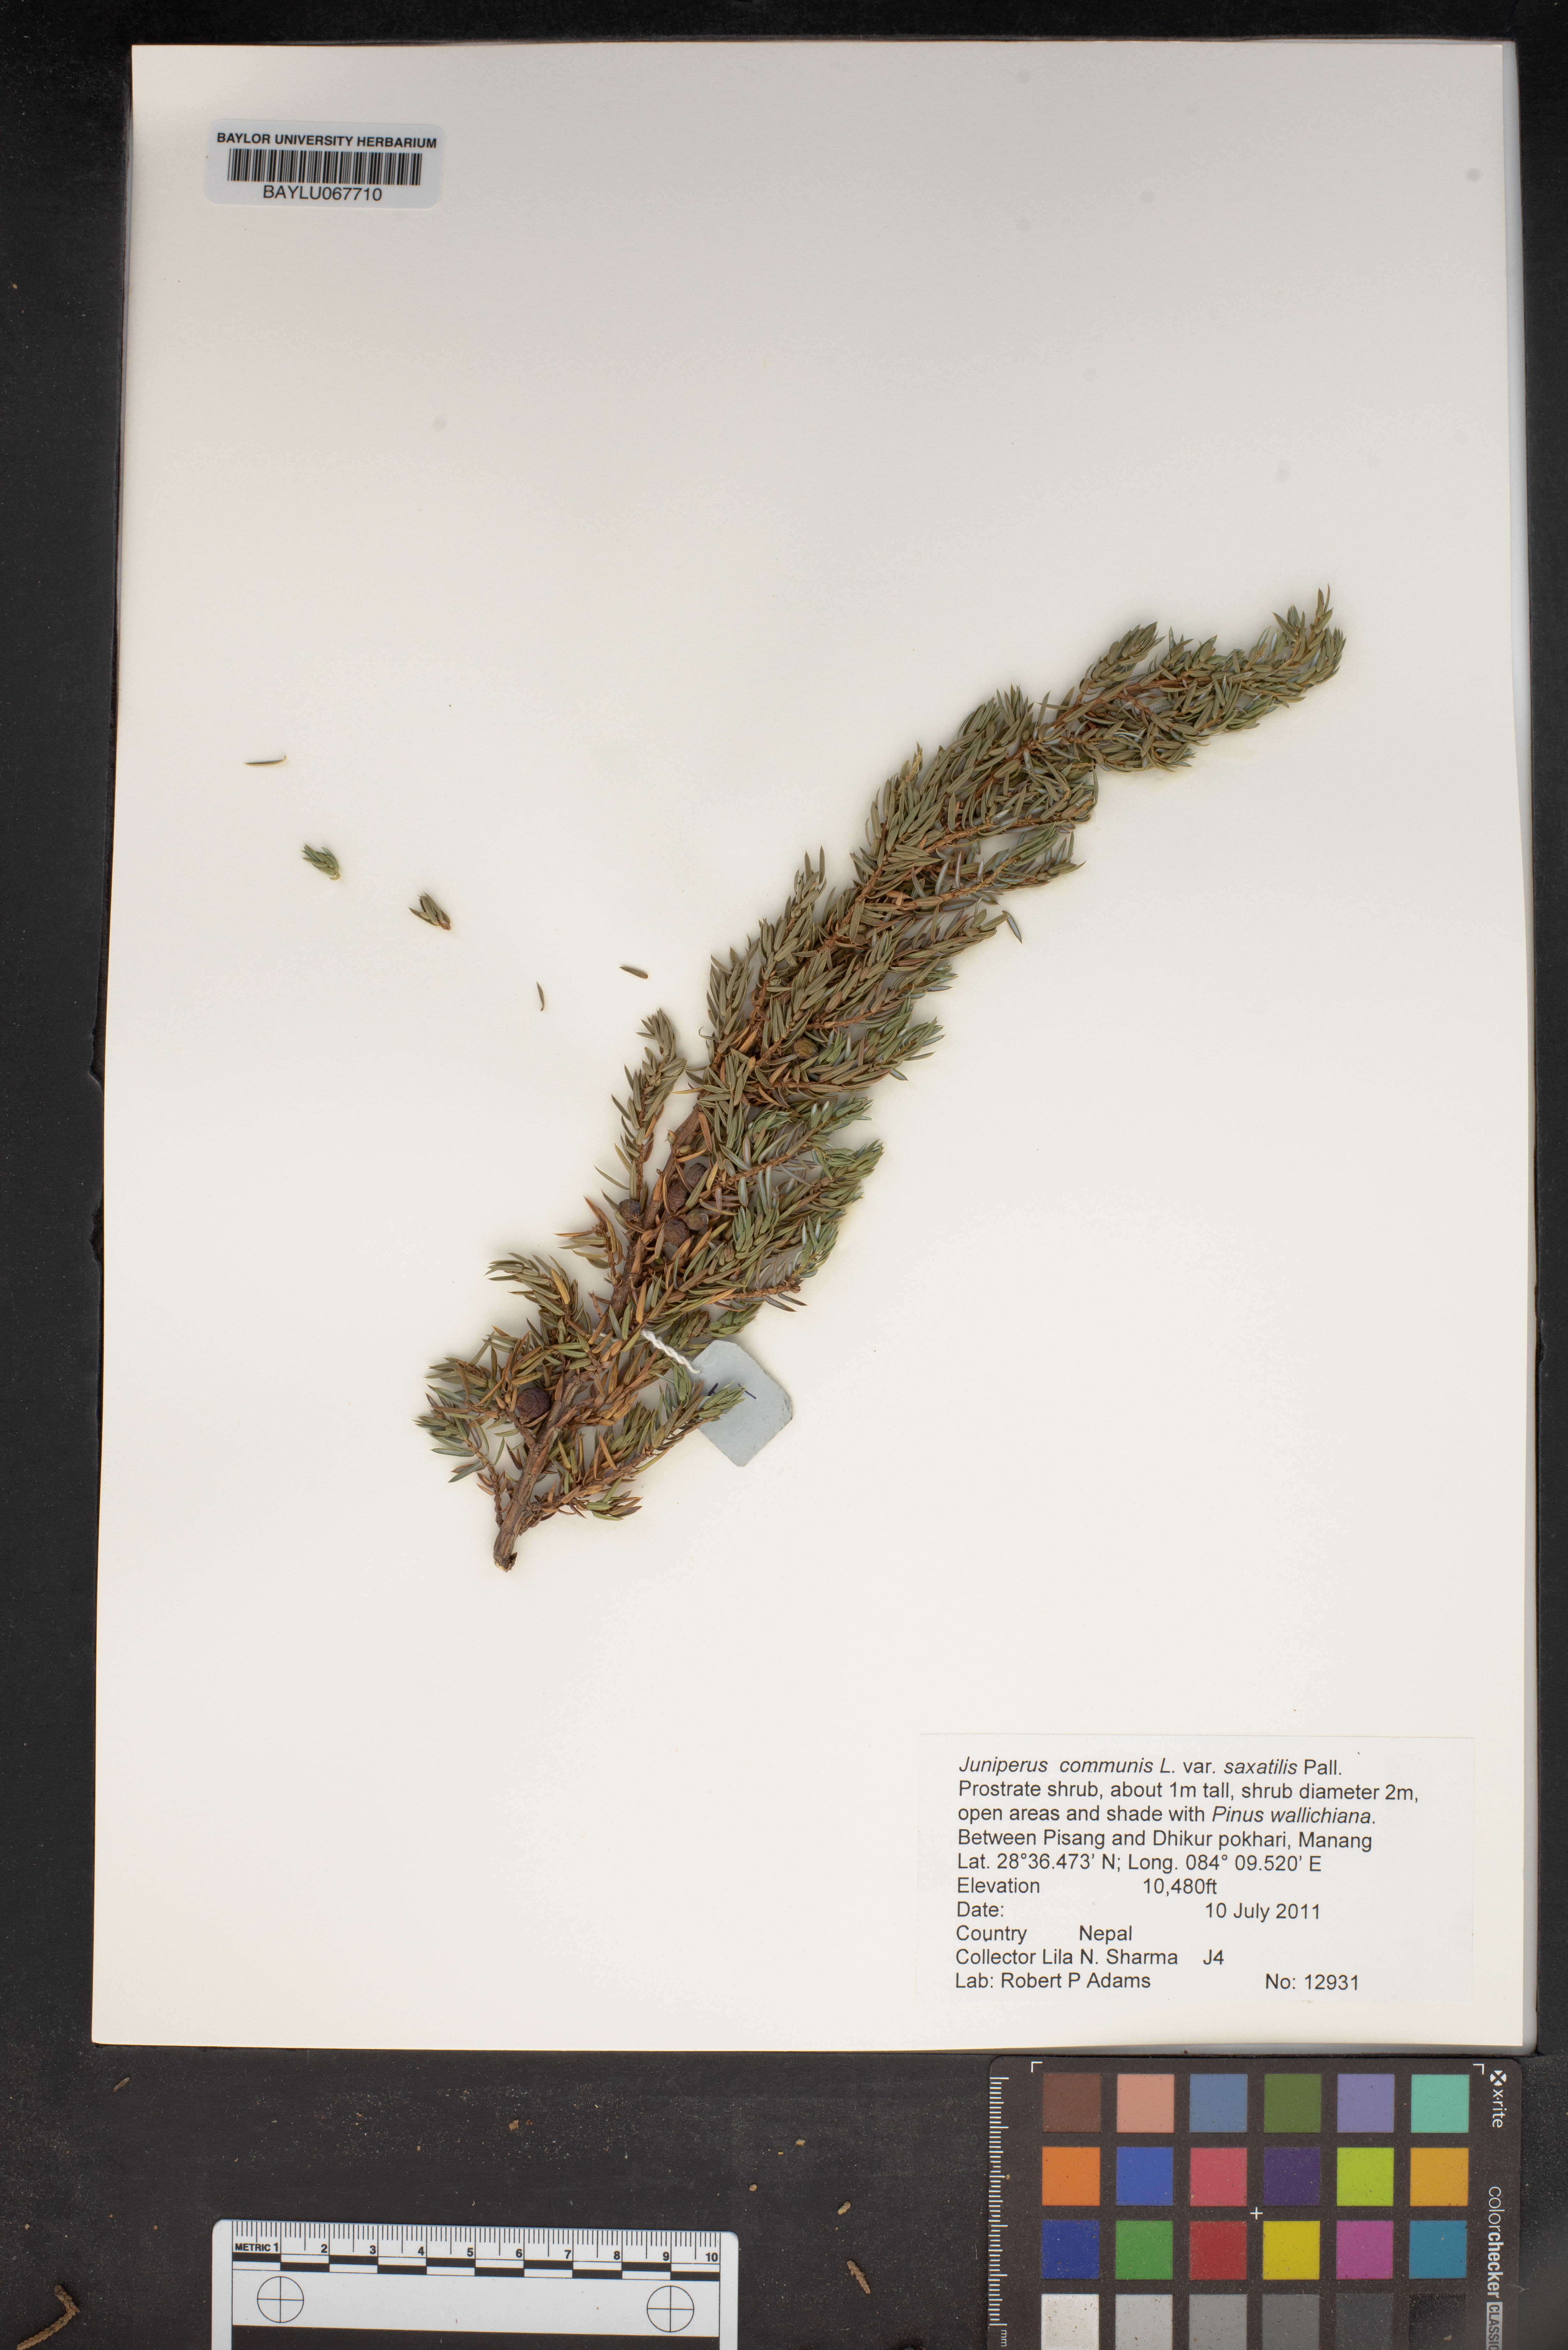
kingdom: Plantae
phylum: Tracheophyta
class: Pinopsida
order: Pinales
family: Cupressaceae
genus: Juniperus
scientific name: Juniperus communis
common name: Common juniper
